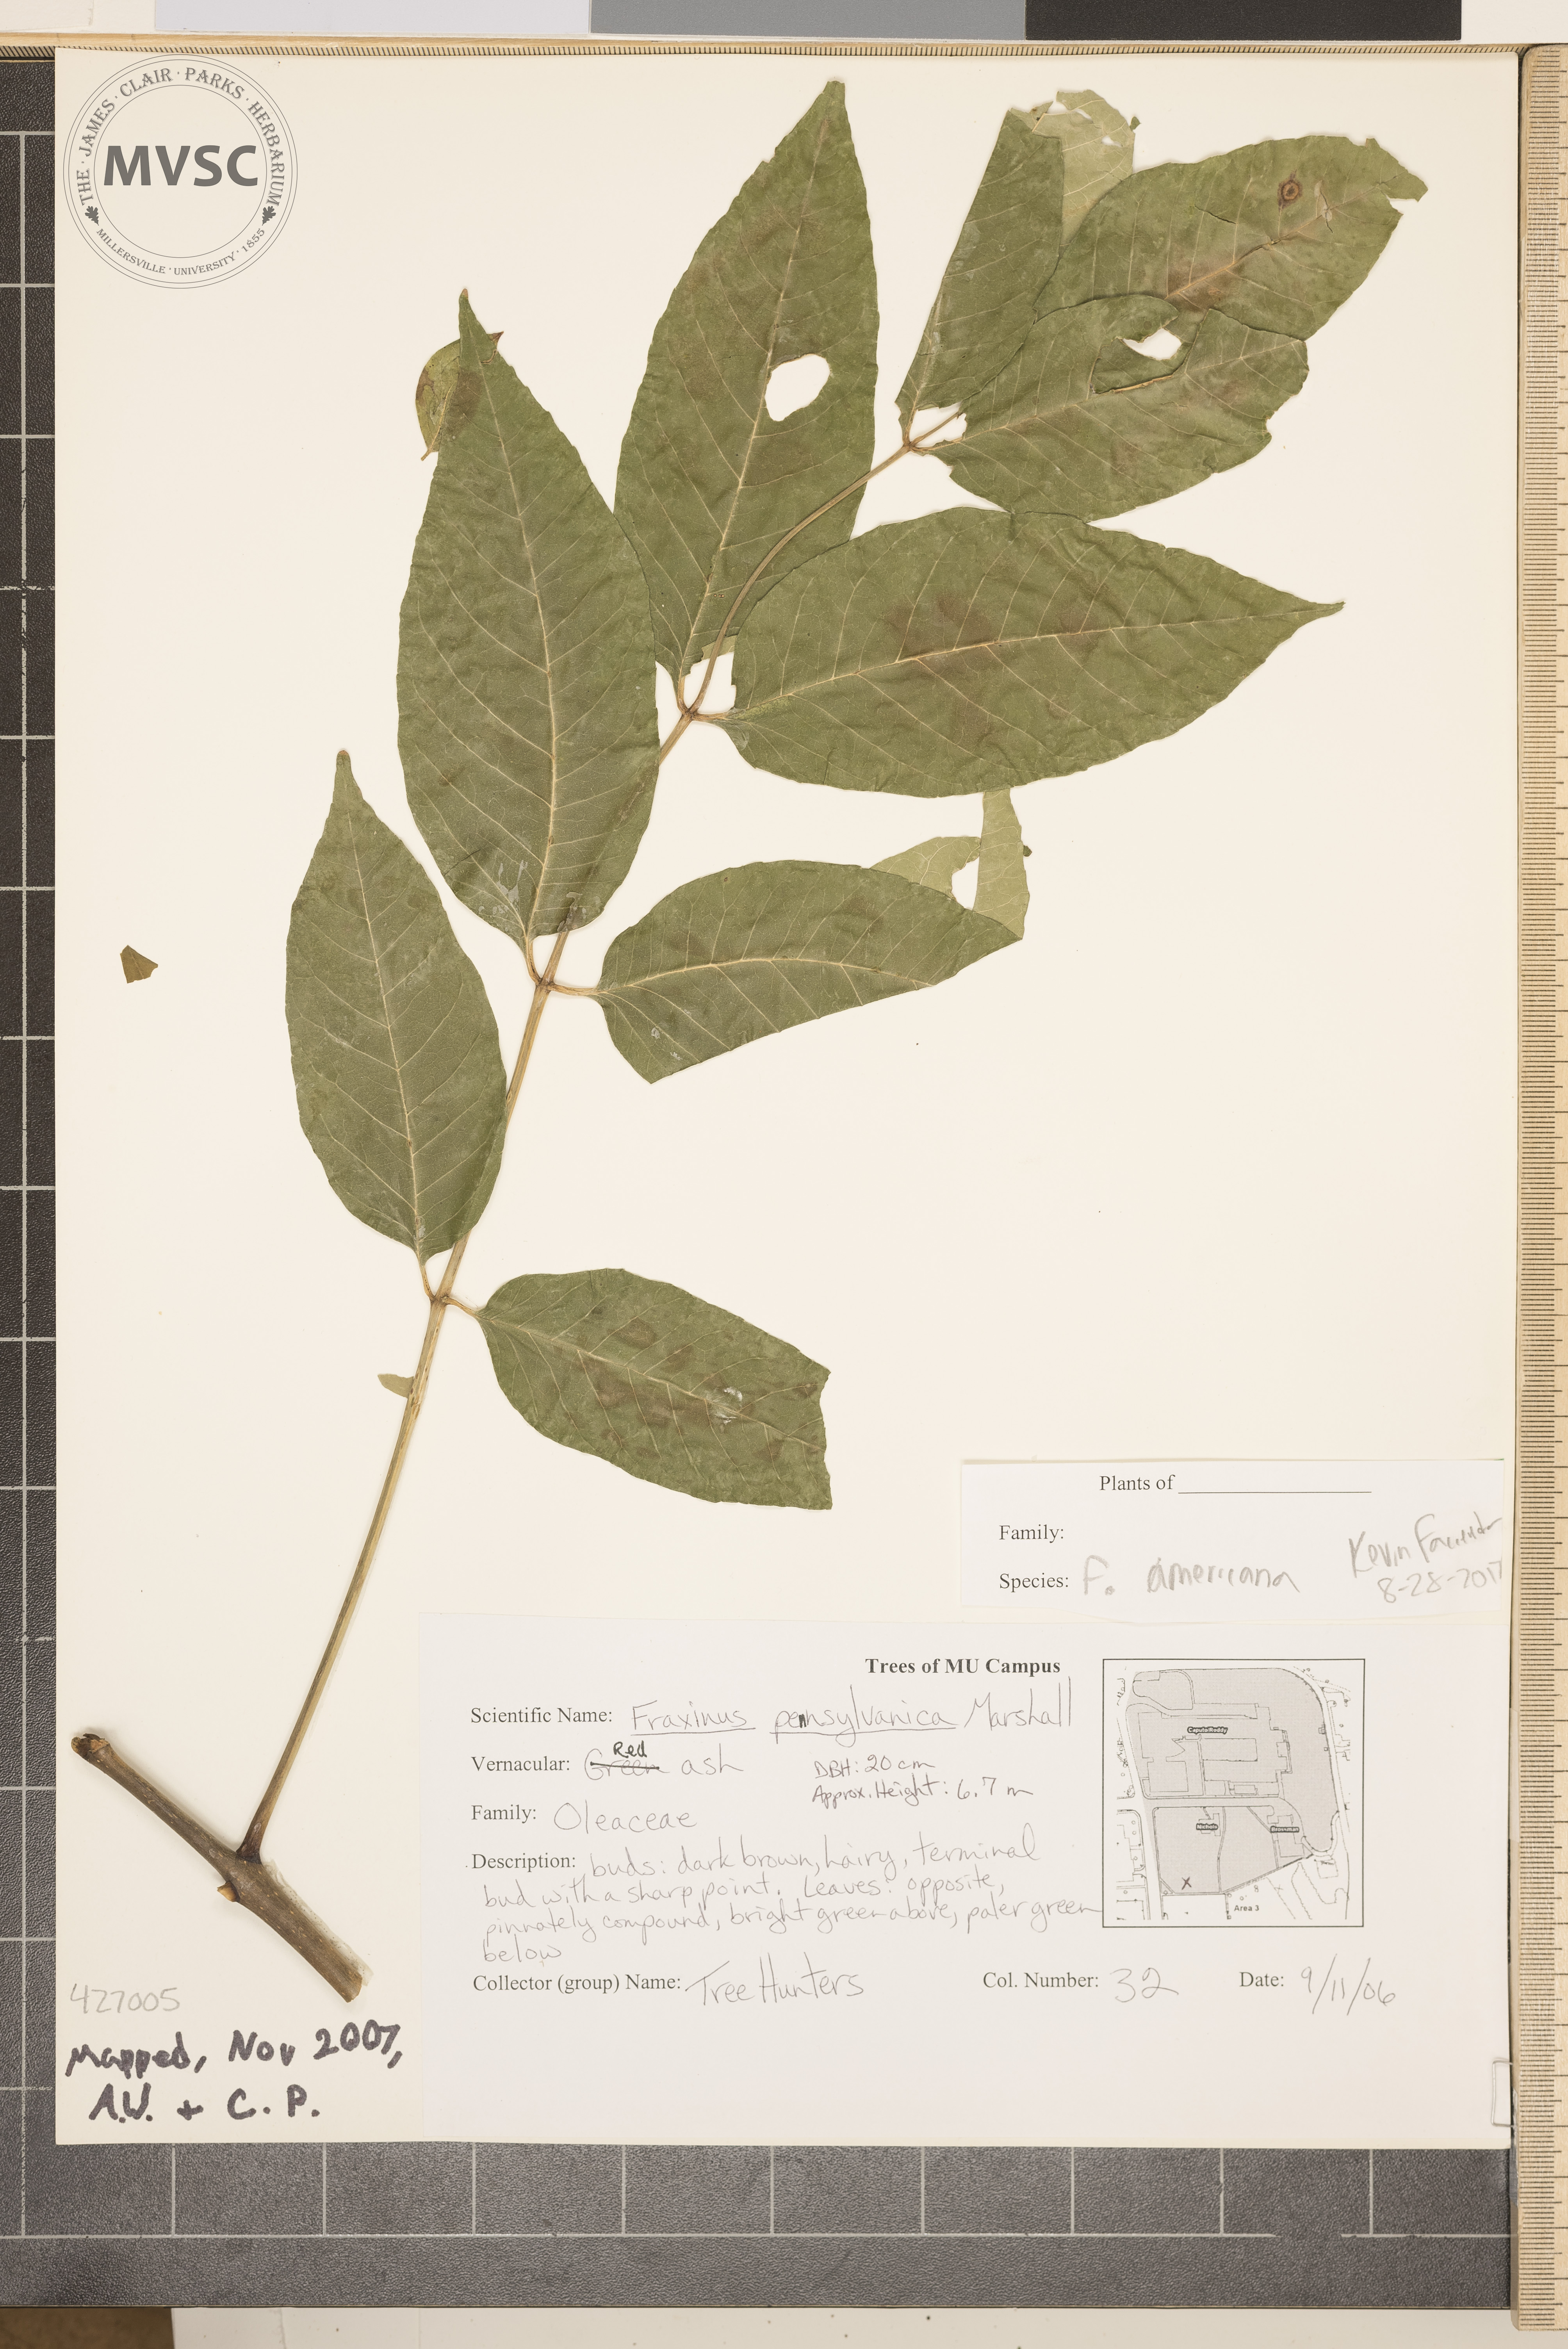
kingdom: Plantae
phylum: Tracheophyta
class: Magnoliopsida
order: Lamiales
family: Oleaceae
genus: Fraxinus
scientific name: Fraxinus americana
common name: White ash
